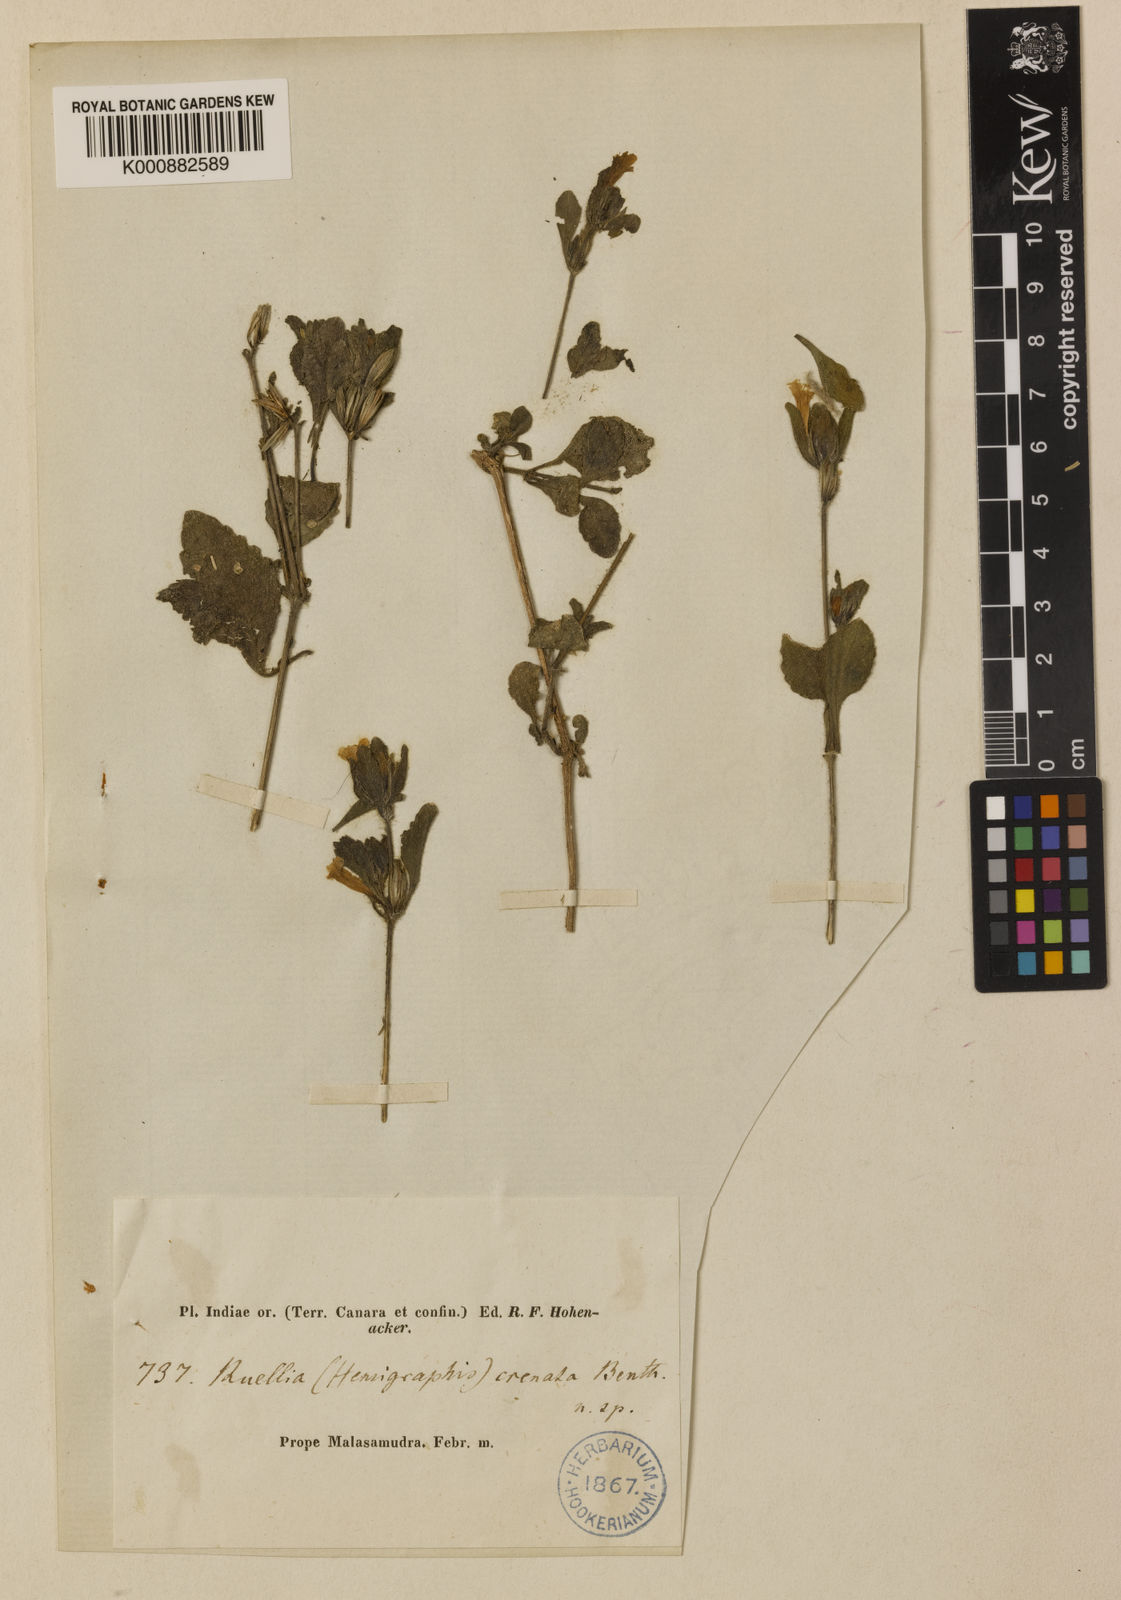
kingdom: Plantae
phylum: Tracheophyta
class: Magnoliopsida
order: Lamiales
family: Acanthaceae
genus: Strobilanthes
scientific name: Strobilanthes pavala
